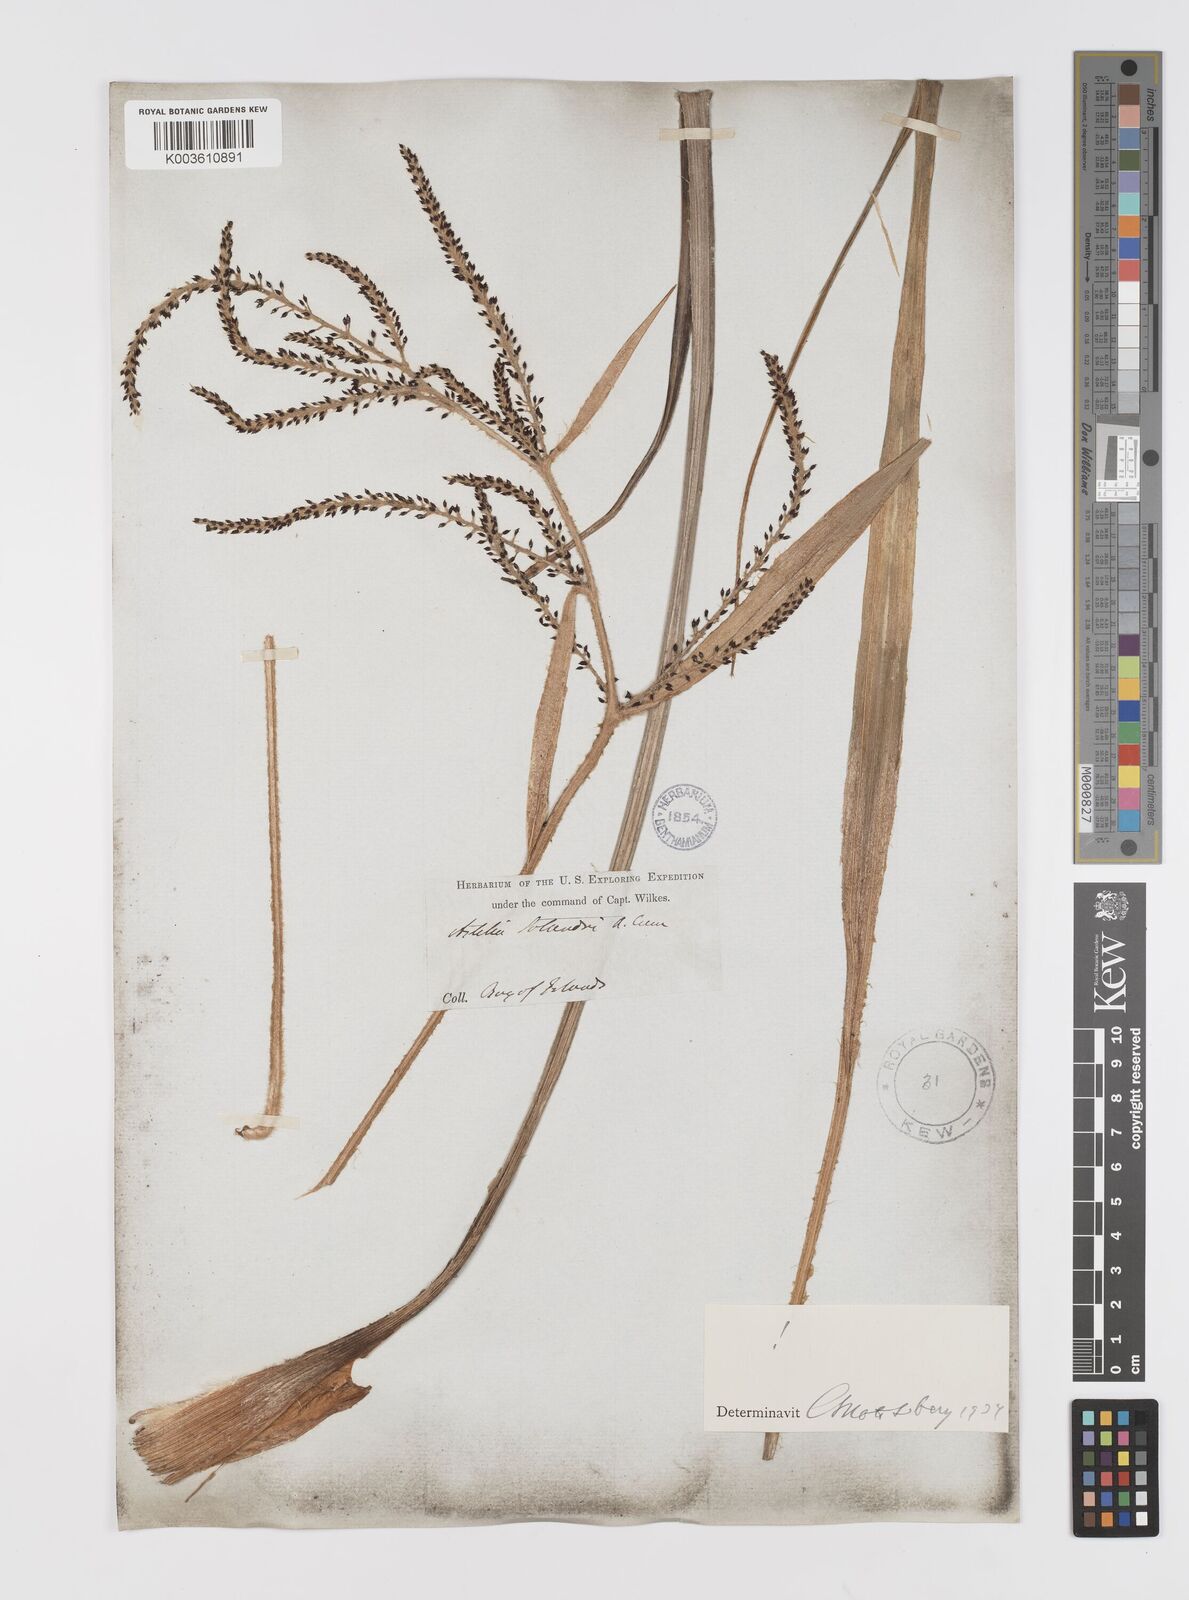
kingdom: Plantae
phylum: Tracheophyta
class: Liliopsida
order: Asparagales
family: Asteliaceae
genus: Astelia
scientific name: Astelia solandri
